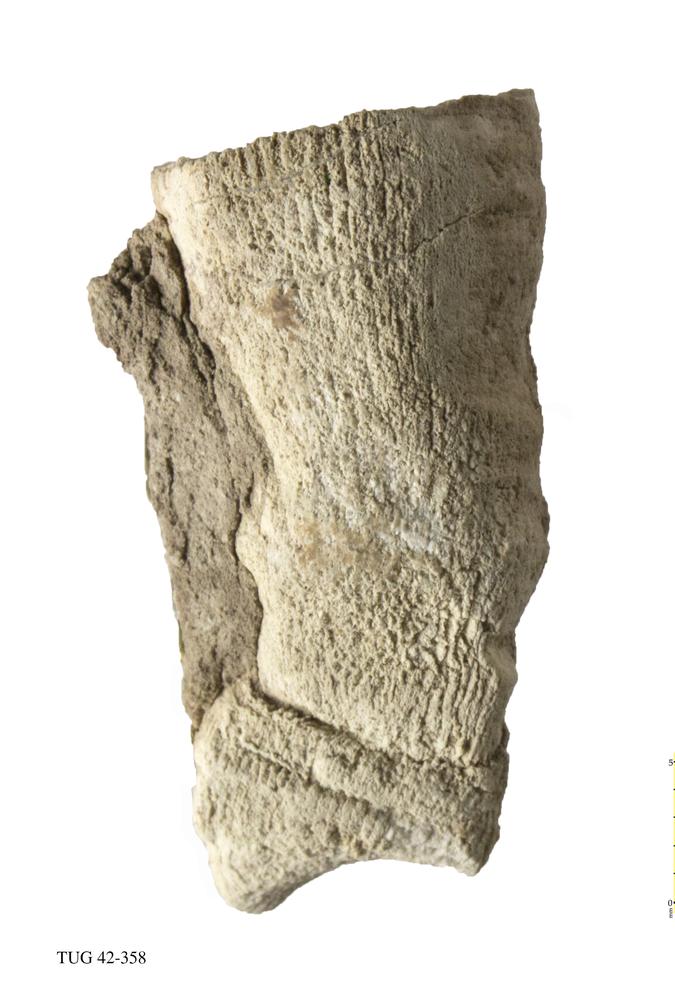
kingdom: Animalia
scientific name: Animalia
